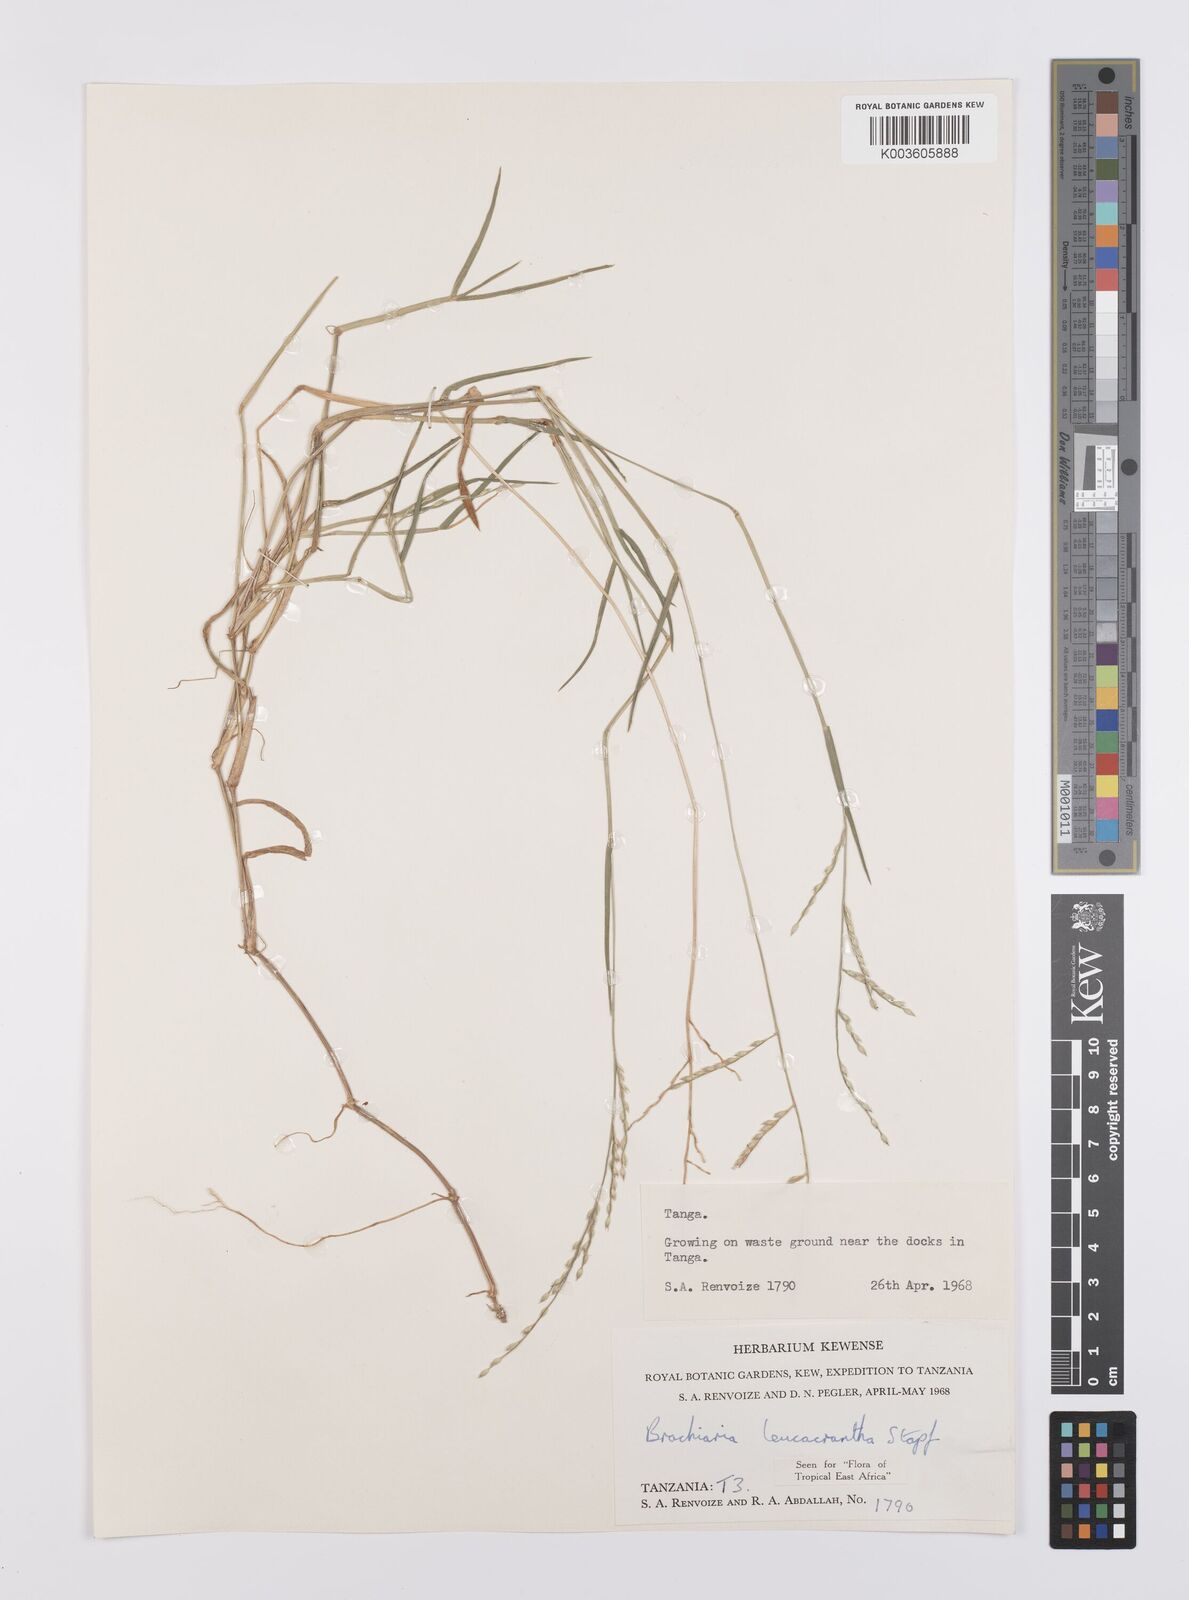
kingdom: Plantae
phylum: Tracheophyta
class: Liliopsida
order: Poales
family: Poaceae
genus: Urochloa
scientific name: Urochloa xantholeuca
